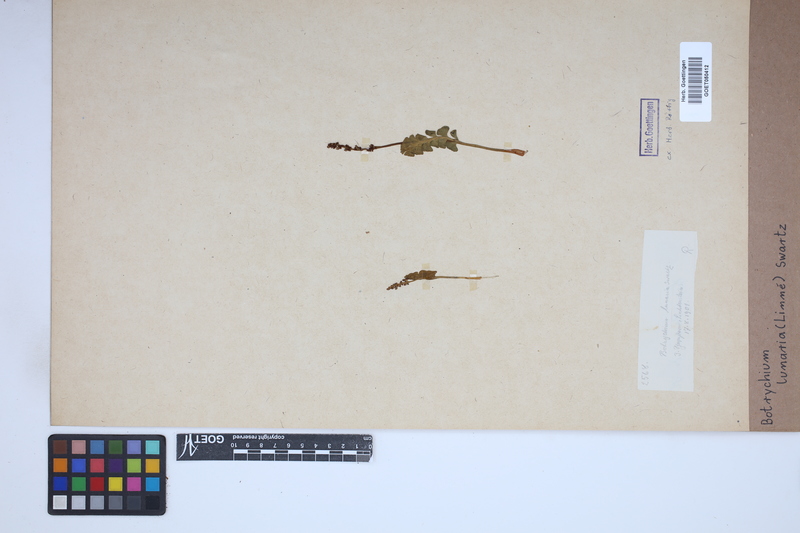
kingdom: Plantae
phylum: Tracheophyta
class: Polypodiopsida
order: Ophioglossales
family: Ophioglossaceae
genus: Botrychium
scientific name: Botrychium lunaria
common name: Moonwort
